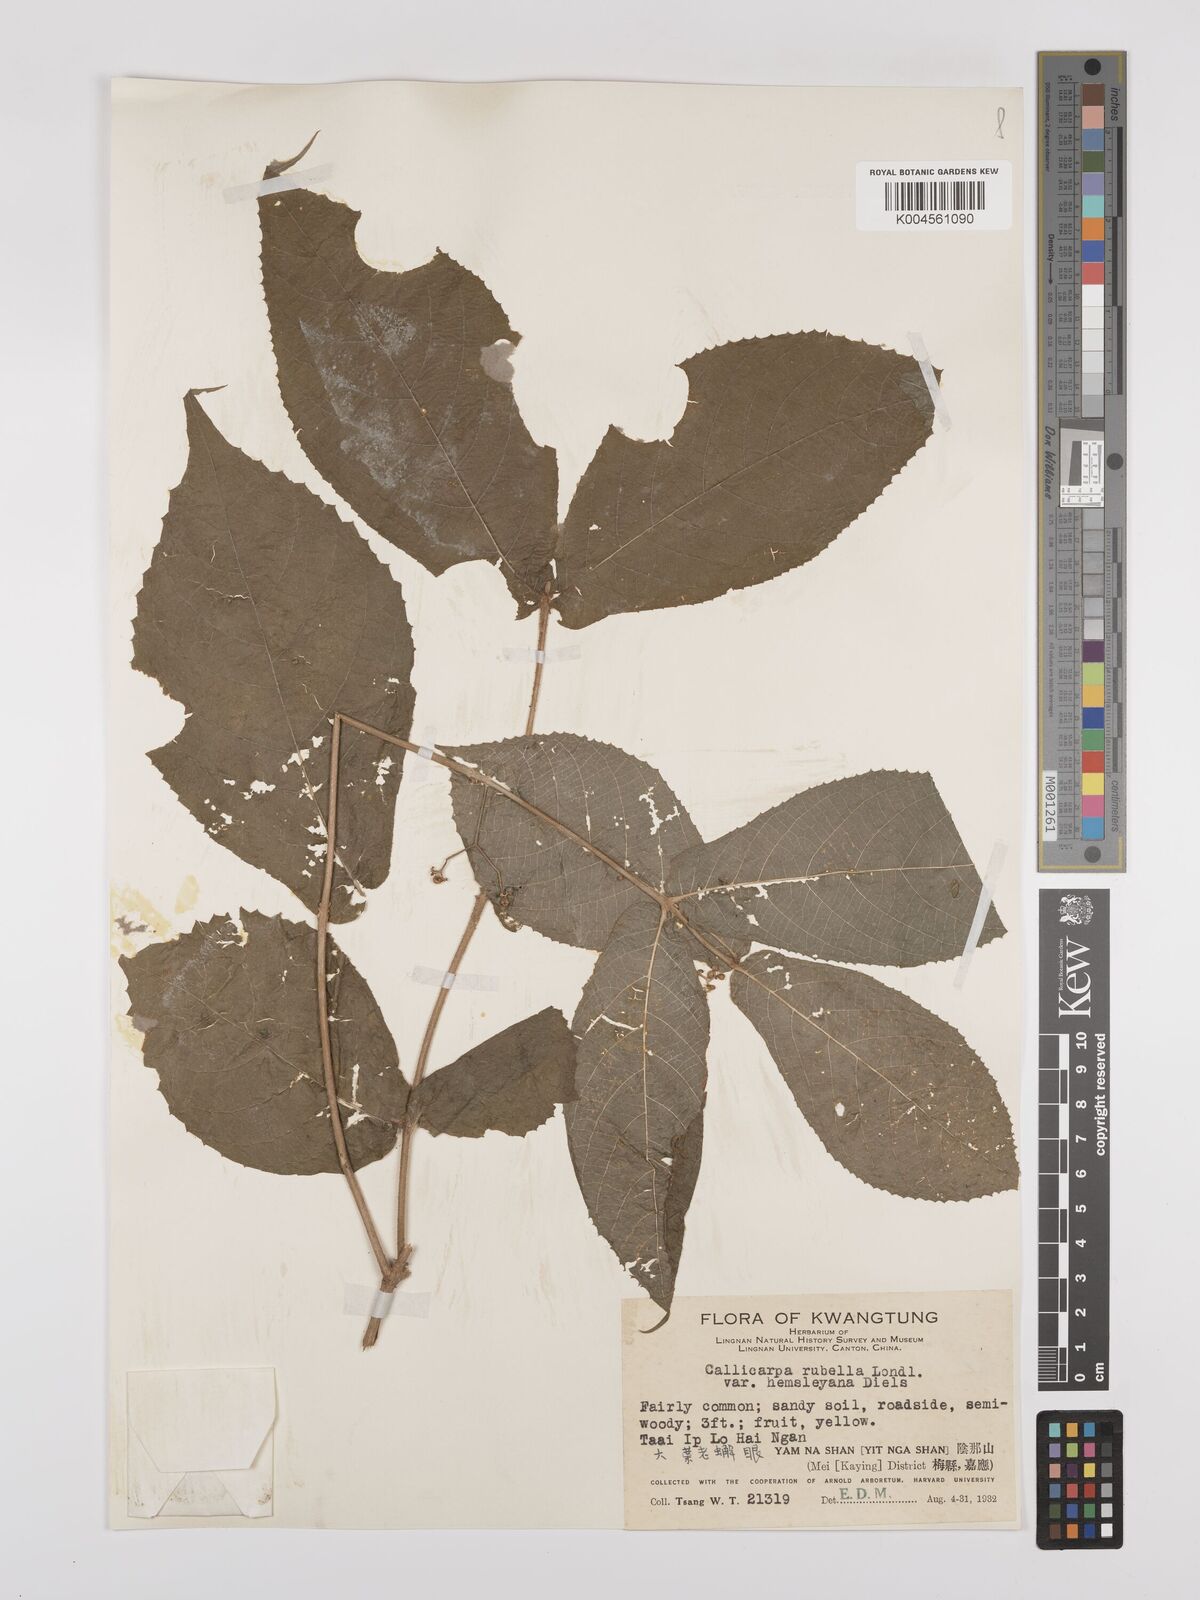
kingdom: Plantae
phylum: Tracheophyta
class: Magnoliopsida
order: Lamiales
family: Lamiaceae
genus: Callicarpa
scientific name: Callicarpa rubella
